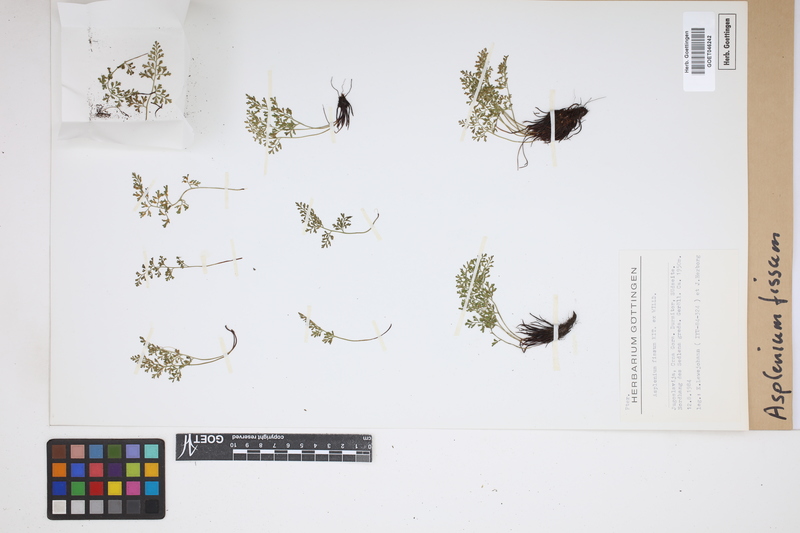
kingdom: Plantae
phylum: Tracheophyta
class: Polypodiopsida
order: Polypodiales
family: Aspleniaceae
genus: Asplenium
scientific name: Asplenium fissum
